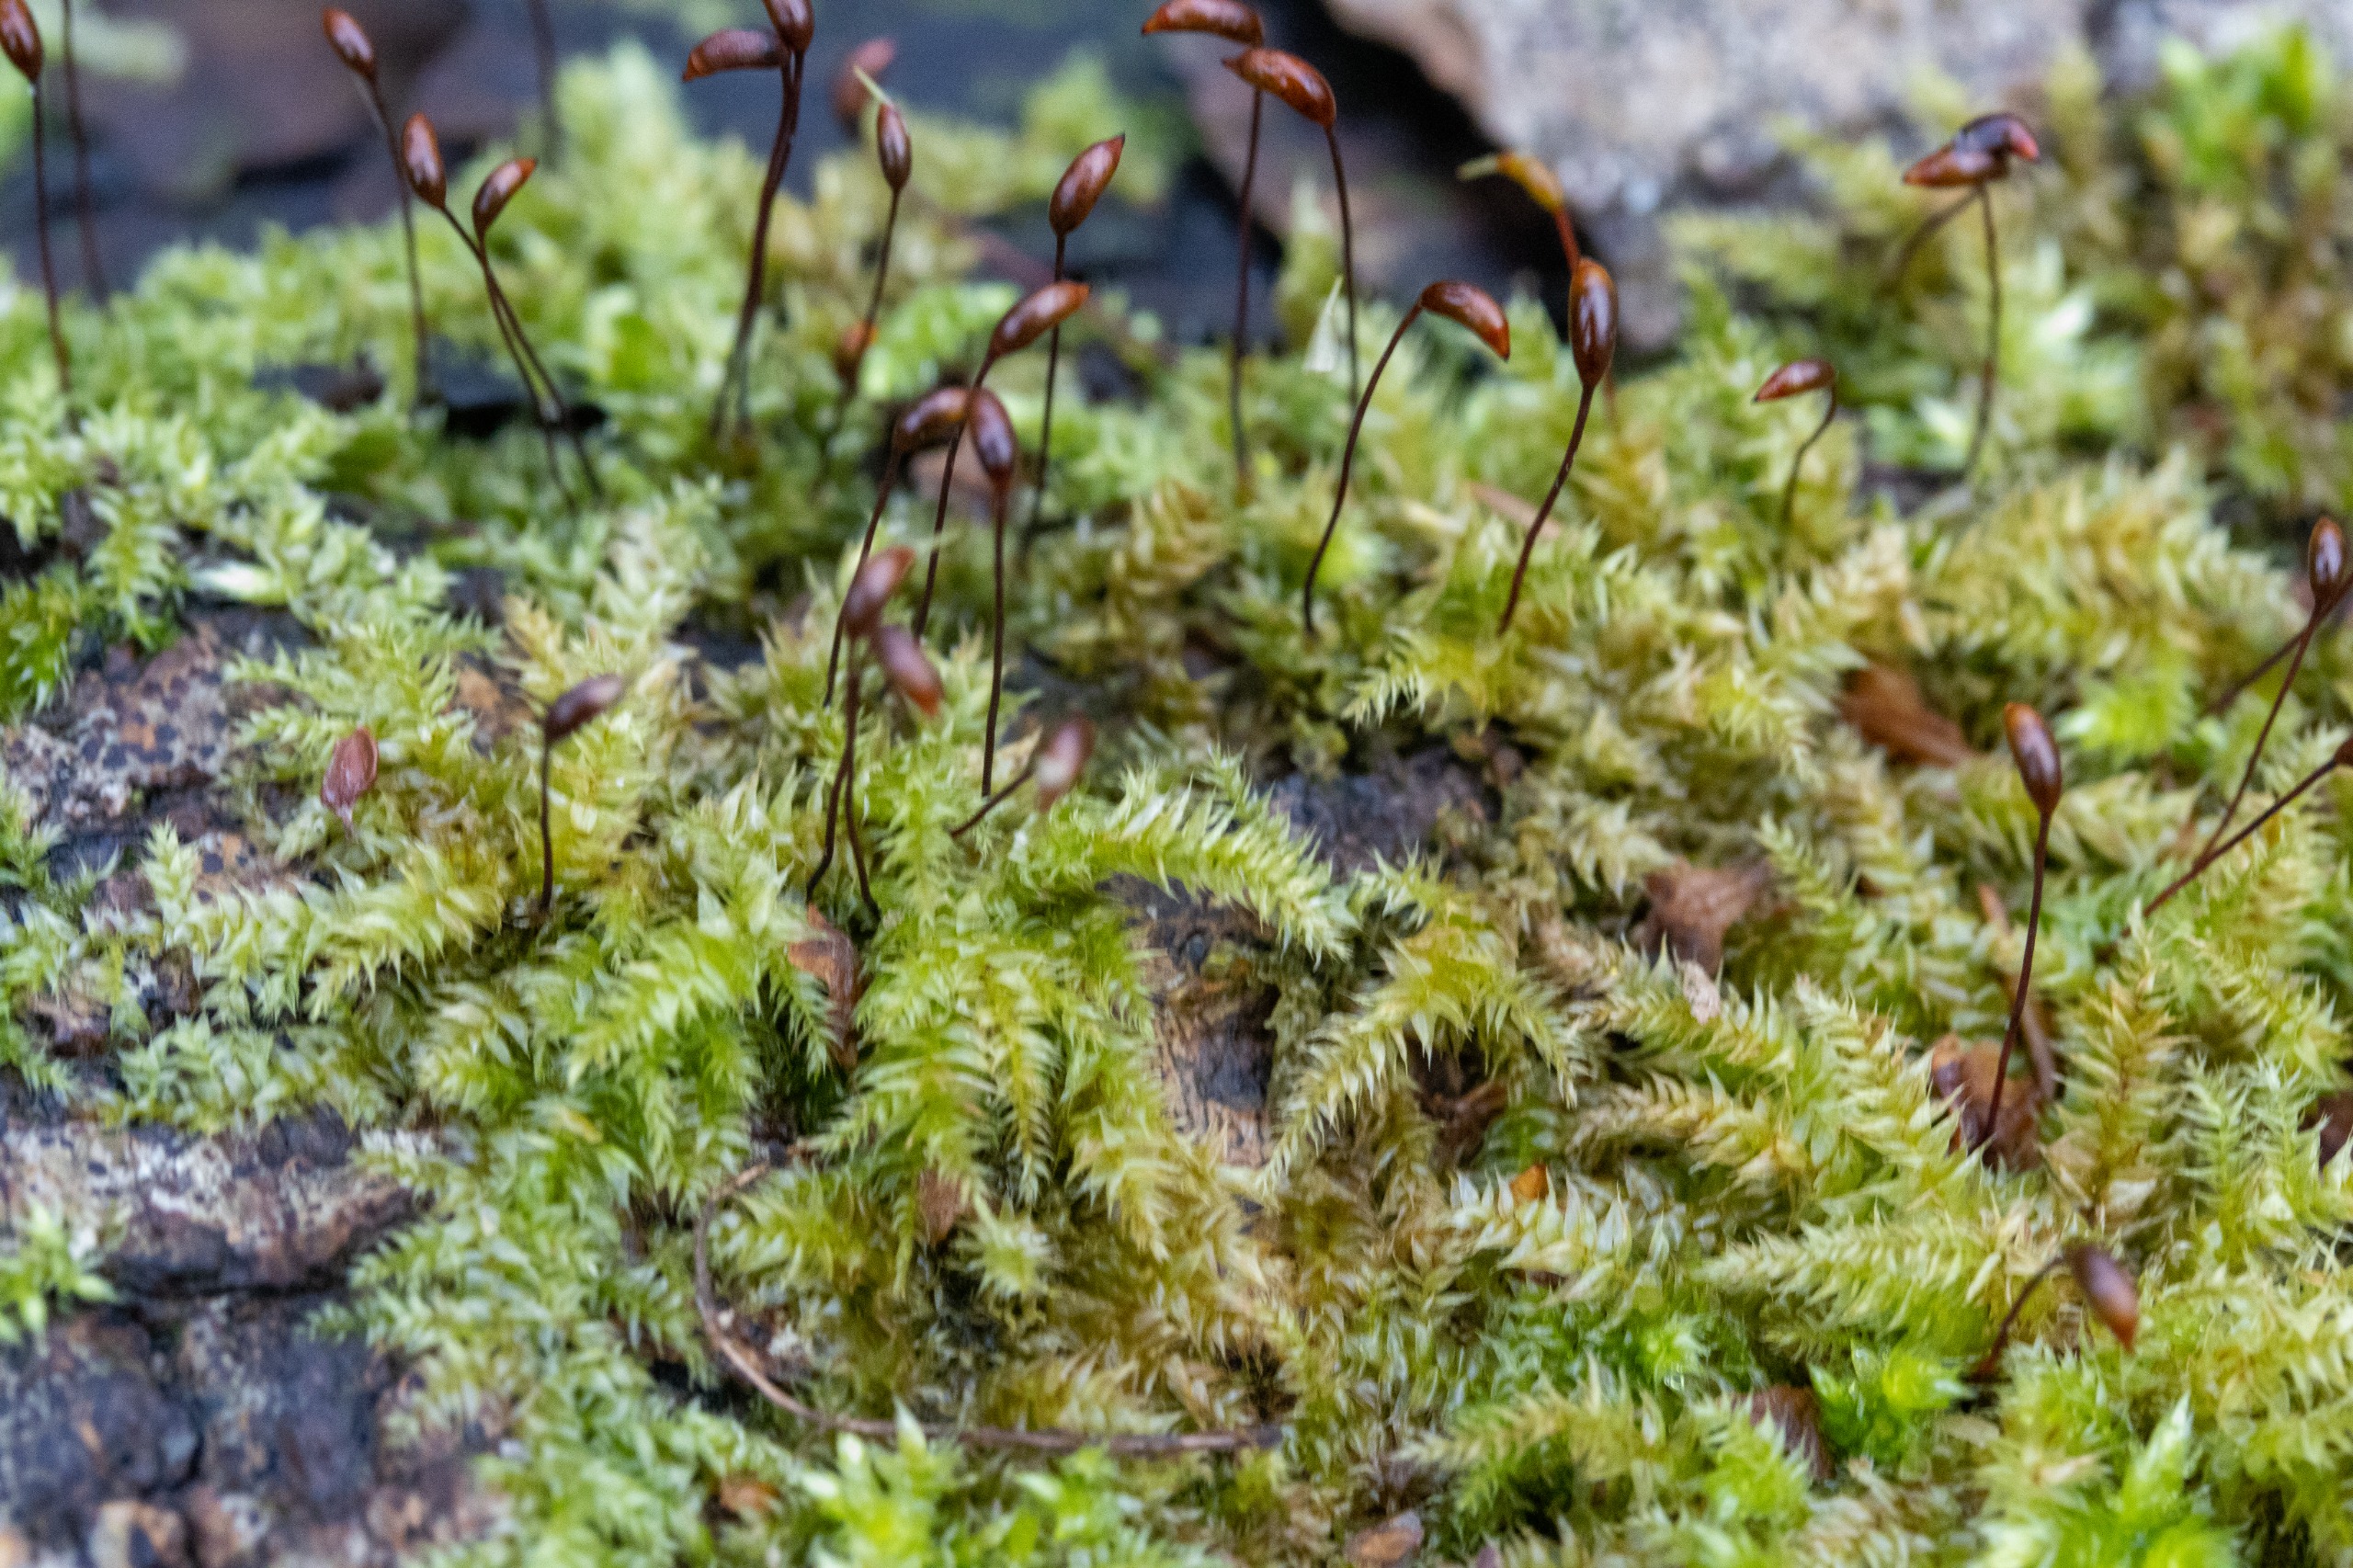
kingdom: Plantae
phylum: Bryophyta
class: Bryopsida
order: Hypnales
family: Brachytheciaceae
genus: Brachythecium
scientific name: Brachythecium rutabulum
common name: Almindelig kortkapsel
